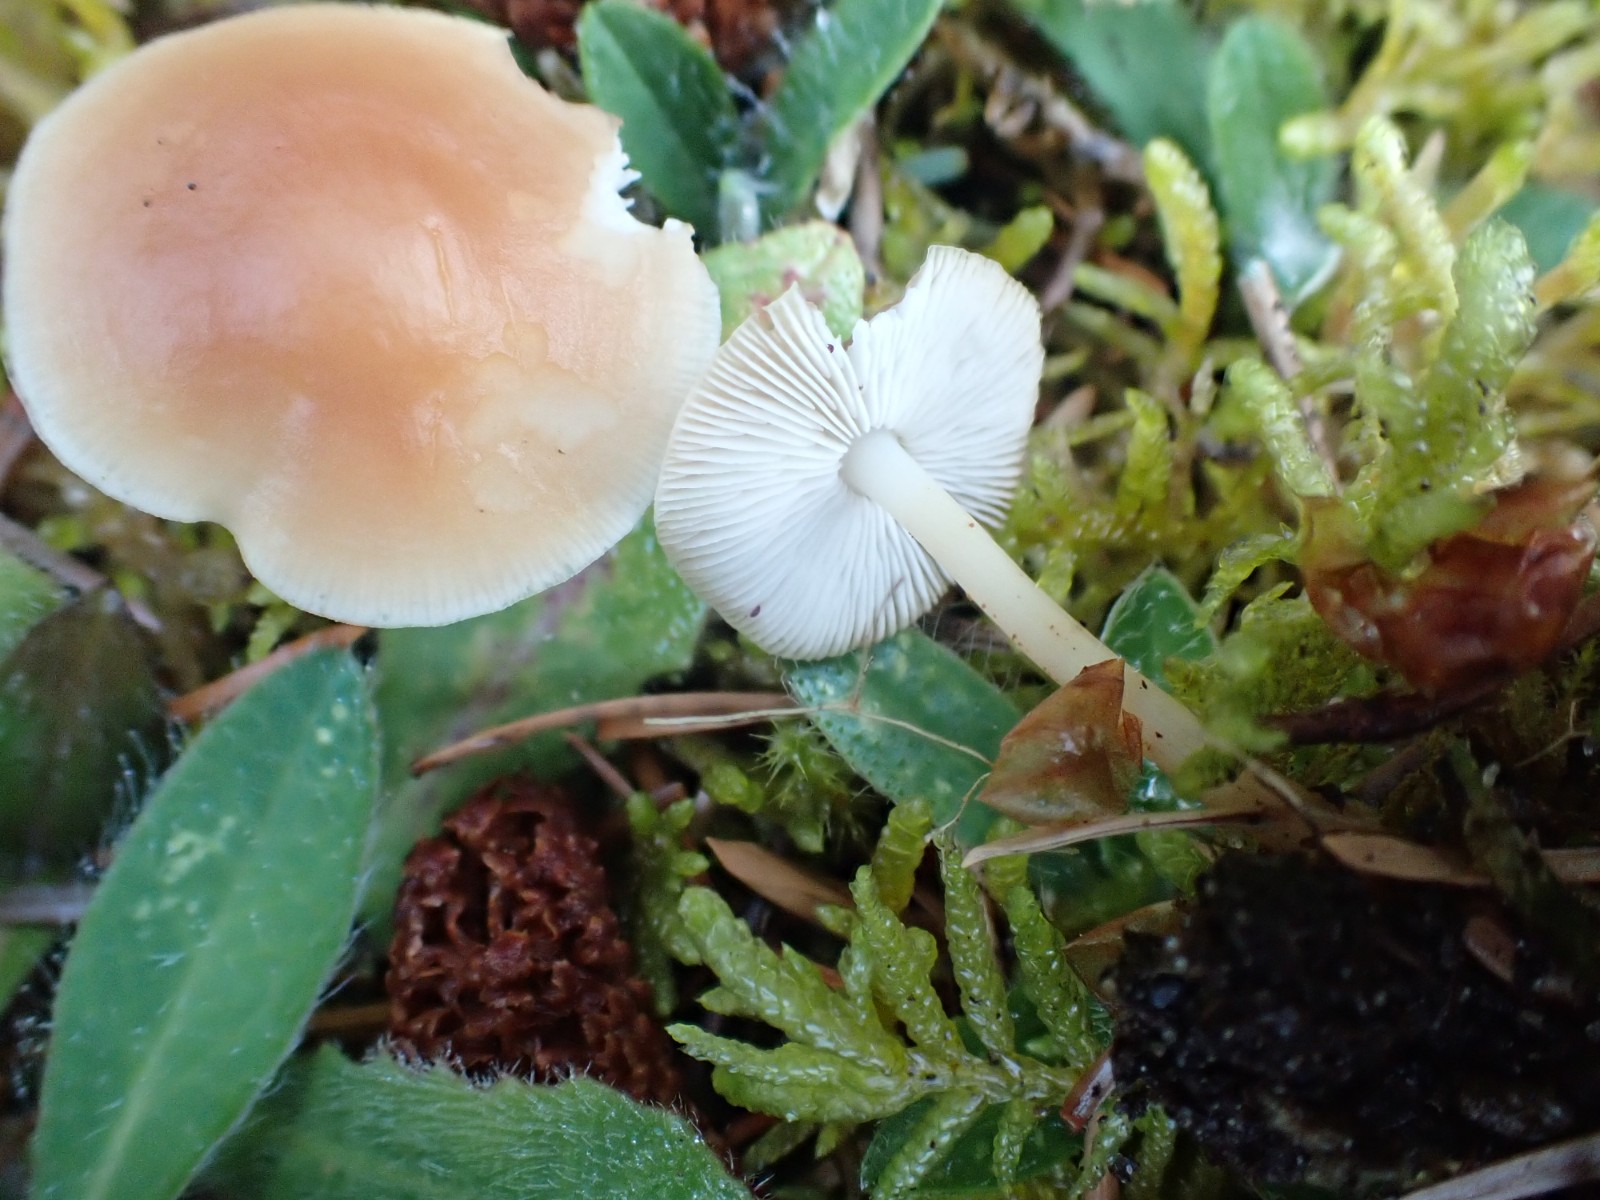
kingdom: Fungi
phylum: Basidiomycota
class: Agaricomycetes
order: Agaricales
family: Omphalotaceae
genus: Gymnopus
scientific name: Gymnopus
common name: fladhat
